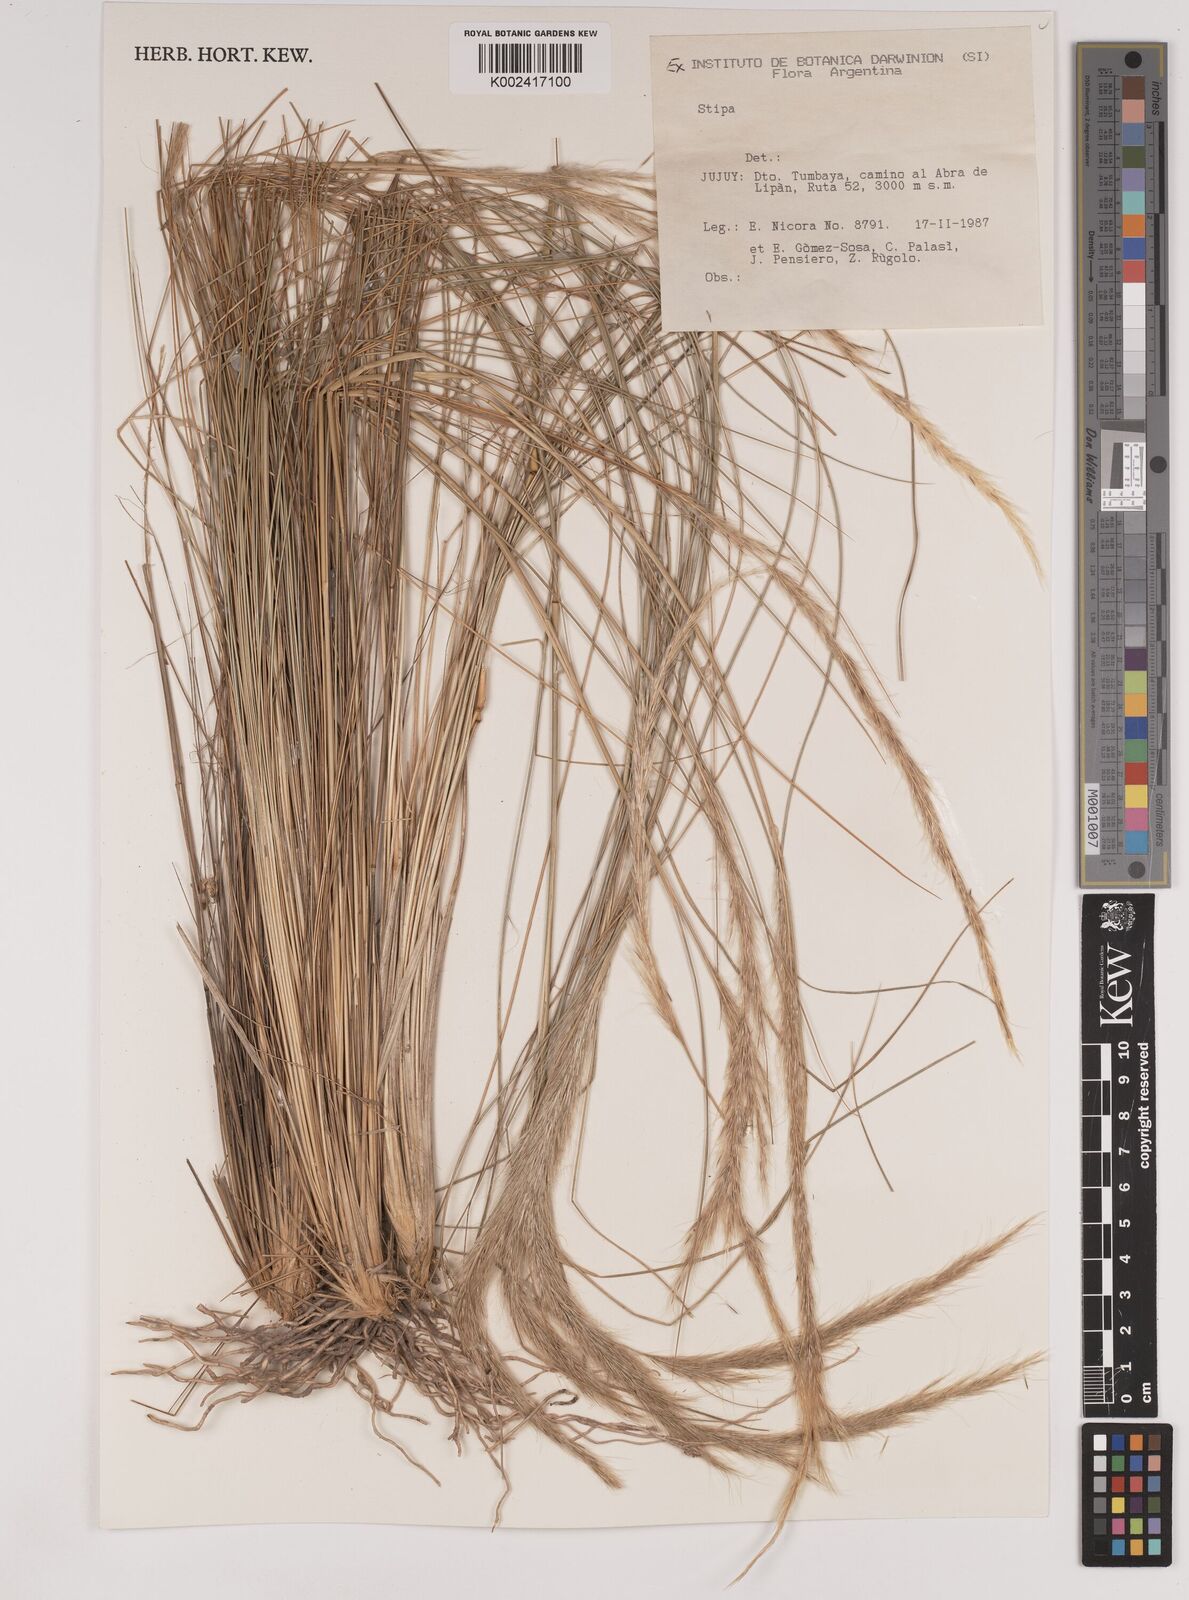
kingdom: Plantae
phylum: Tracheophyta
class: Liliopsida
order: Poales
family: Poaceae
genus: Stipa
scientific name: Stipa
